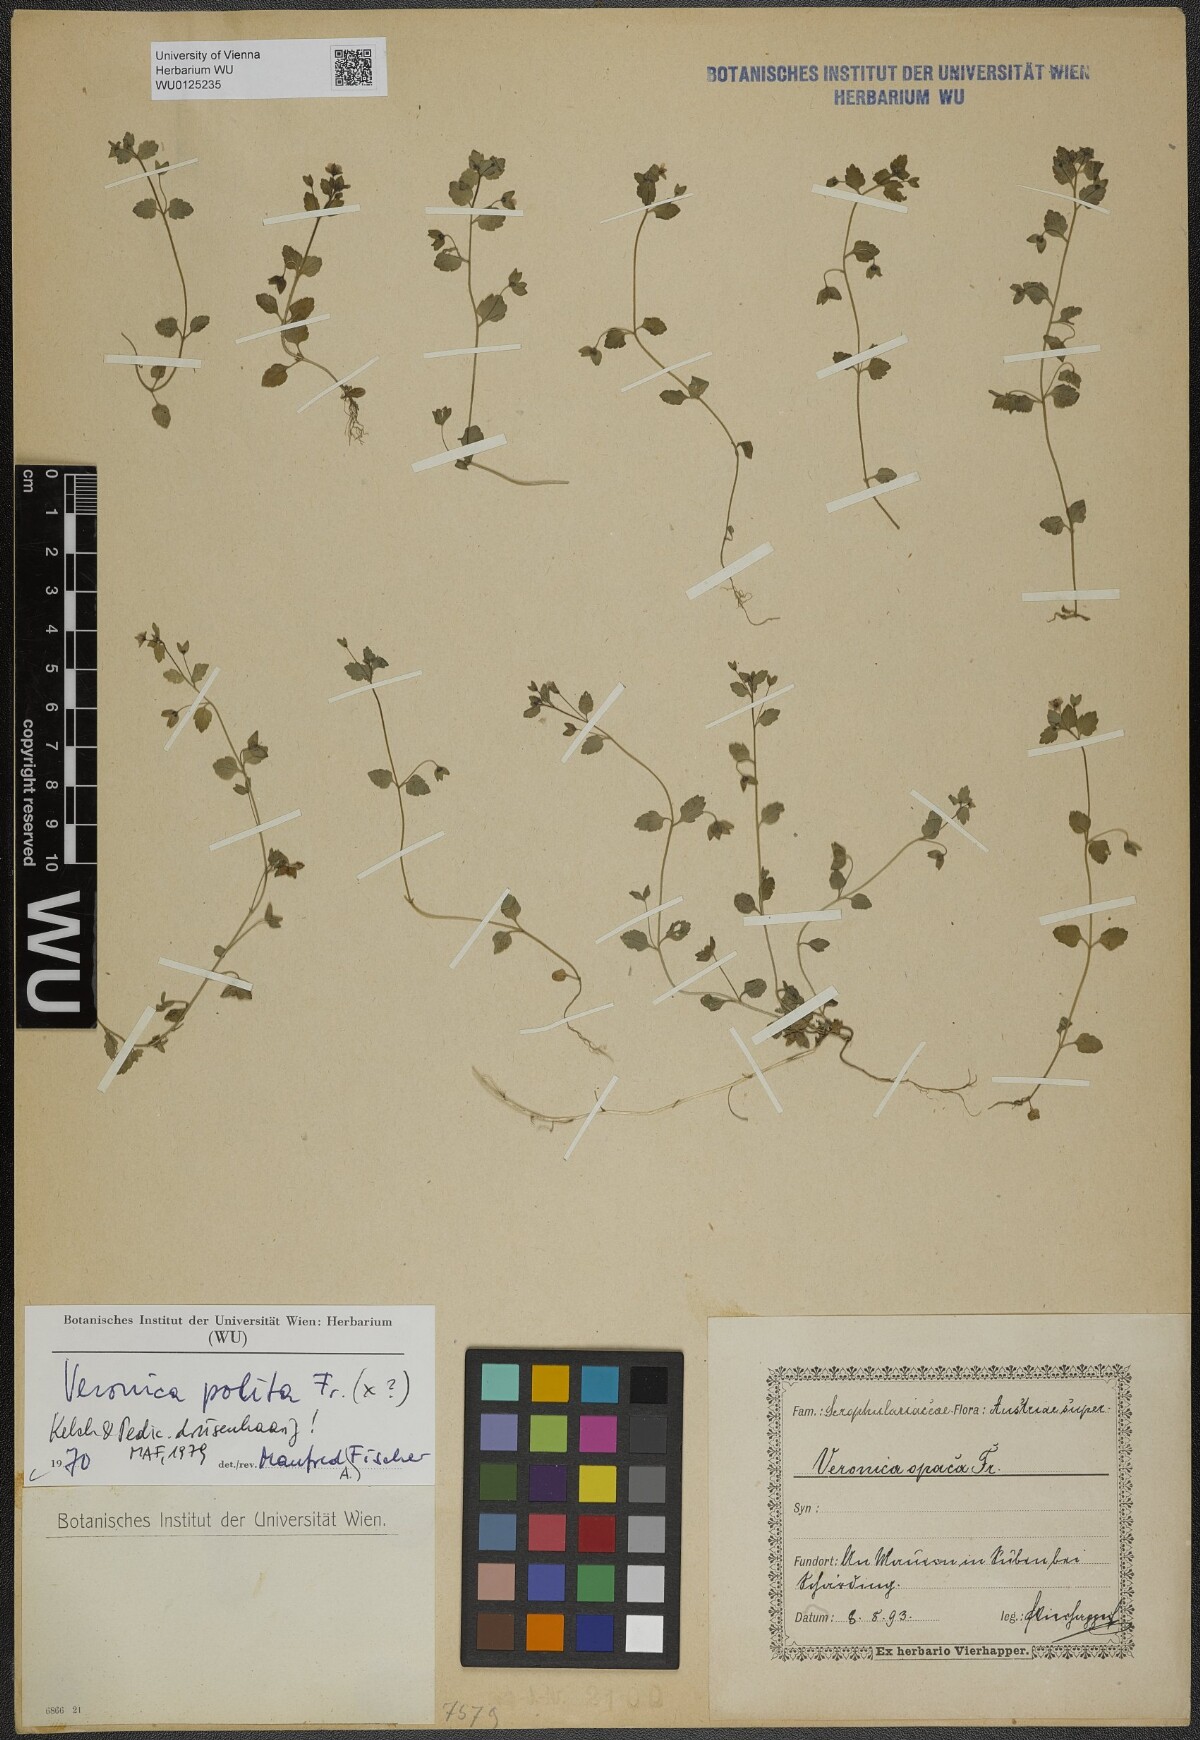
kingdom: Plantae
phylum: Tracheophyta
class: Magnoliopsida
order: Lamiales
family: Plantaginaceae
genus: Veronica
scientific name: Veronica polita
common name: Grey field-speedwell
